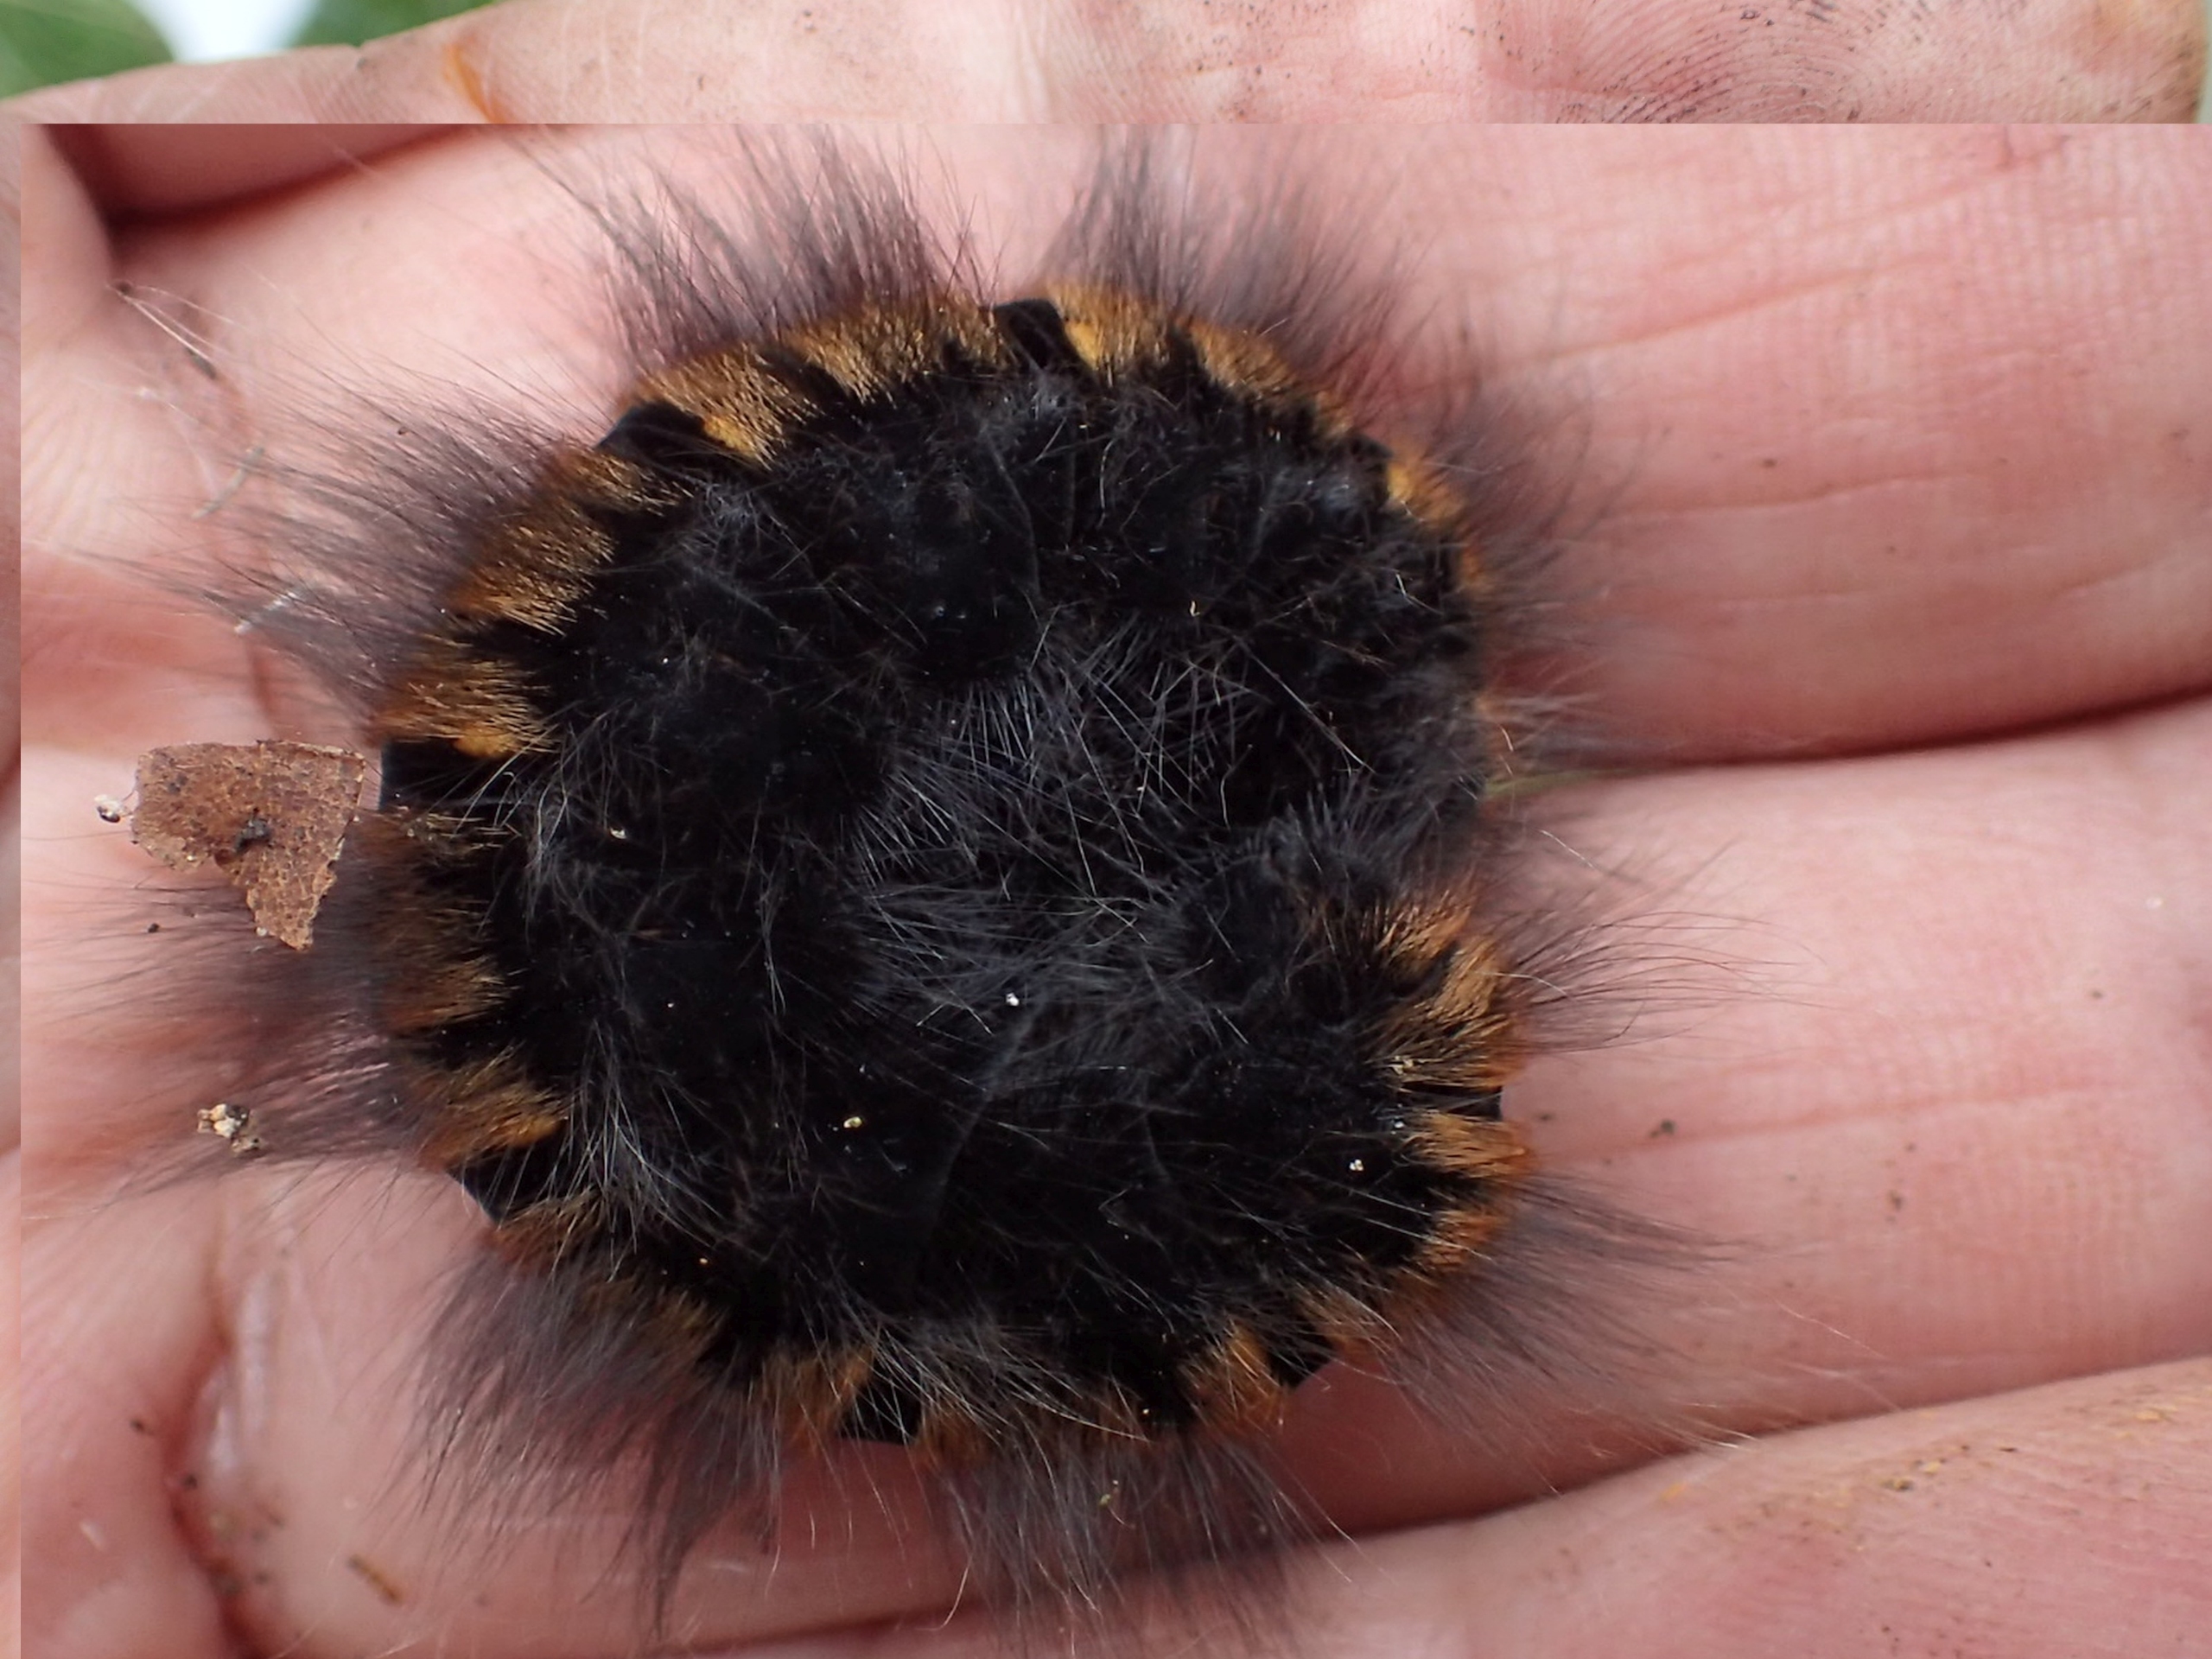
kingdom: Animalia
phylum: Arthropoda
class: Insecta
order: Lepidoptera
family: Lasiocampidae
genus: Macrothylacia
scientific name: Macrothylacia rubi
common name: Brombærspinder
